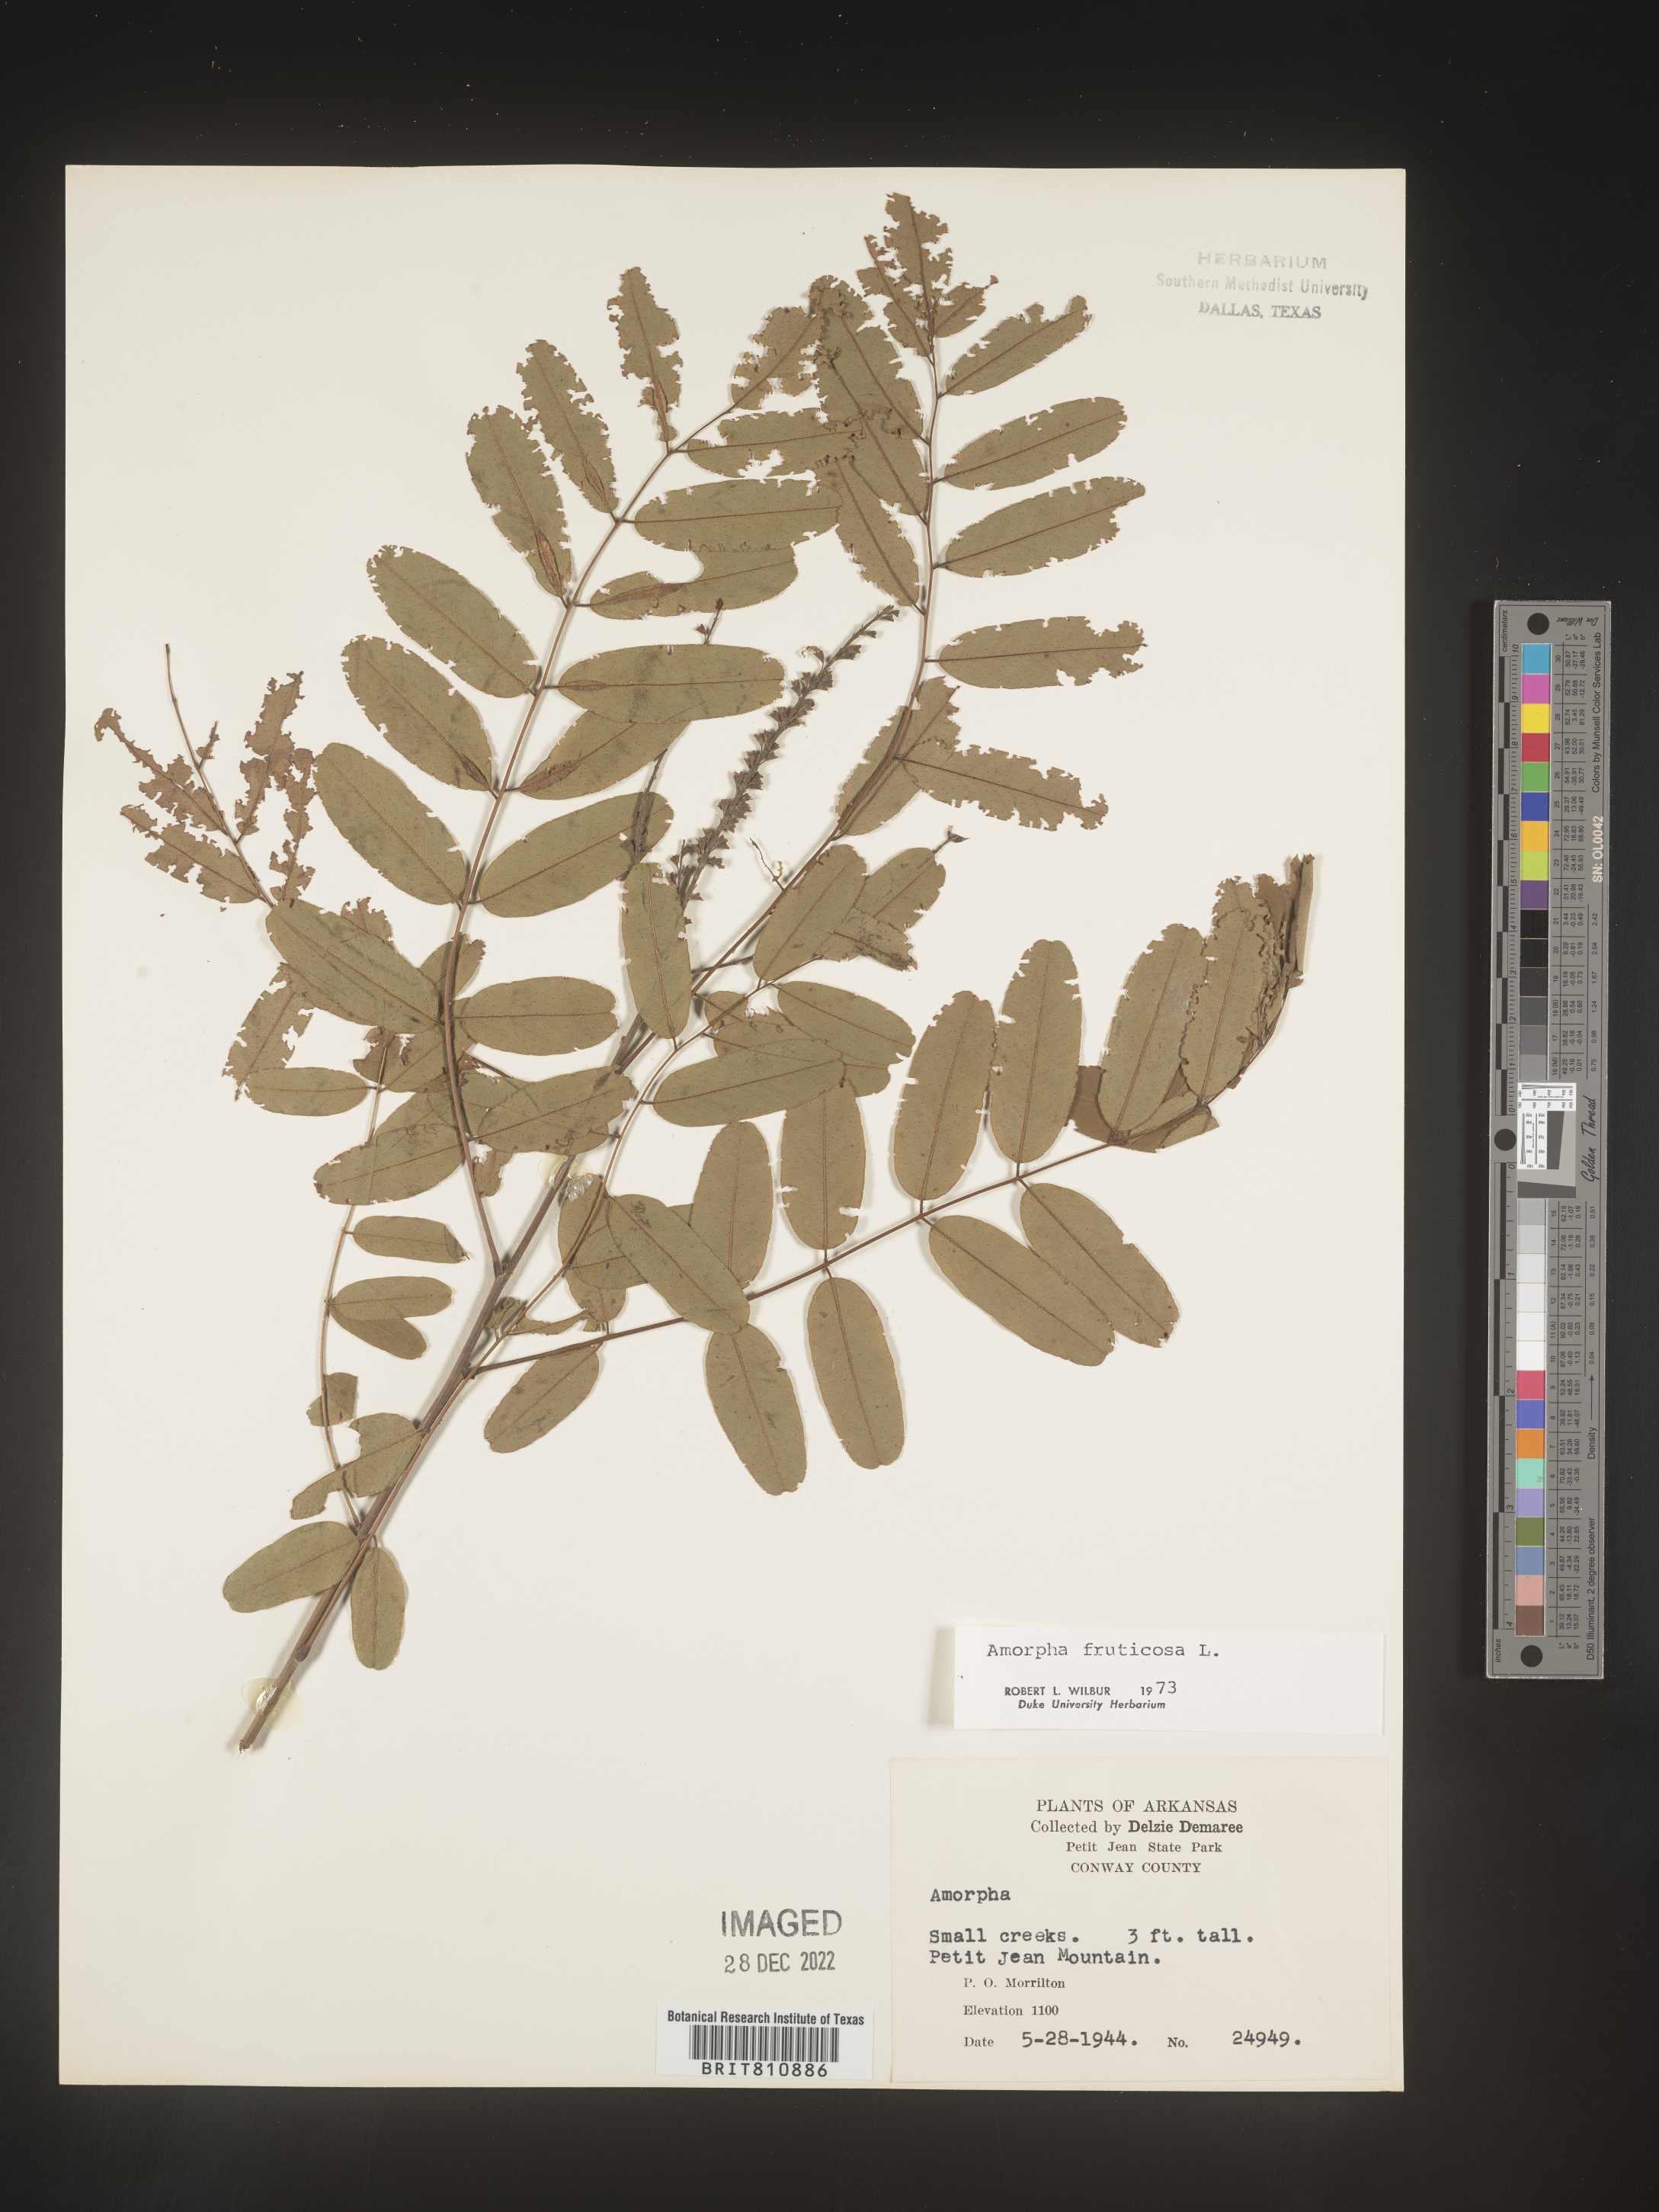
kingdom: Plantae
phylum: Tracheophyta
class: Magnoliopsida
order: Fabales
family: Fabaceae
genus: Amorpha
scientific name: Amorpha fruticosa
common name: False indigo
